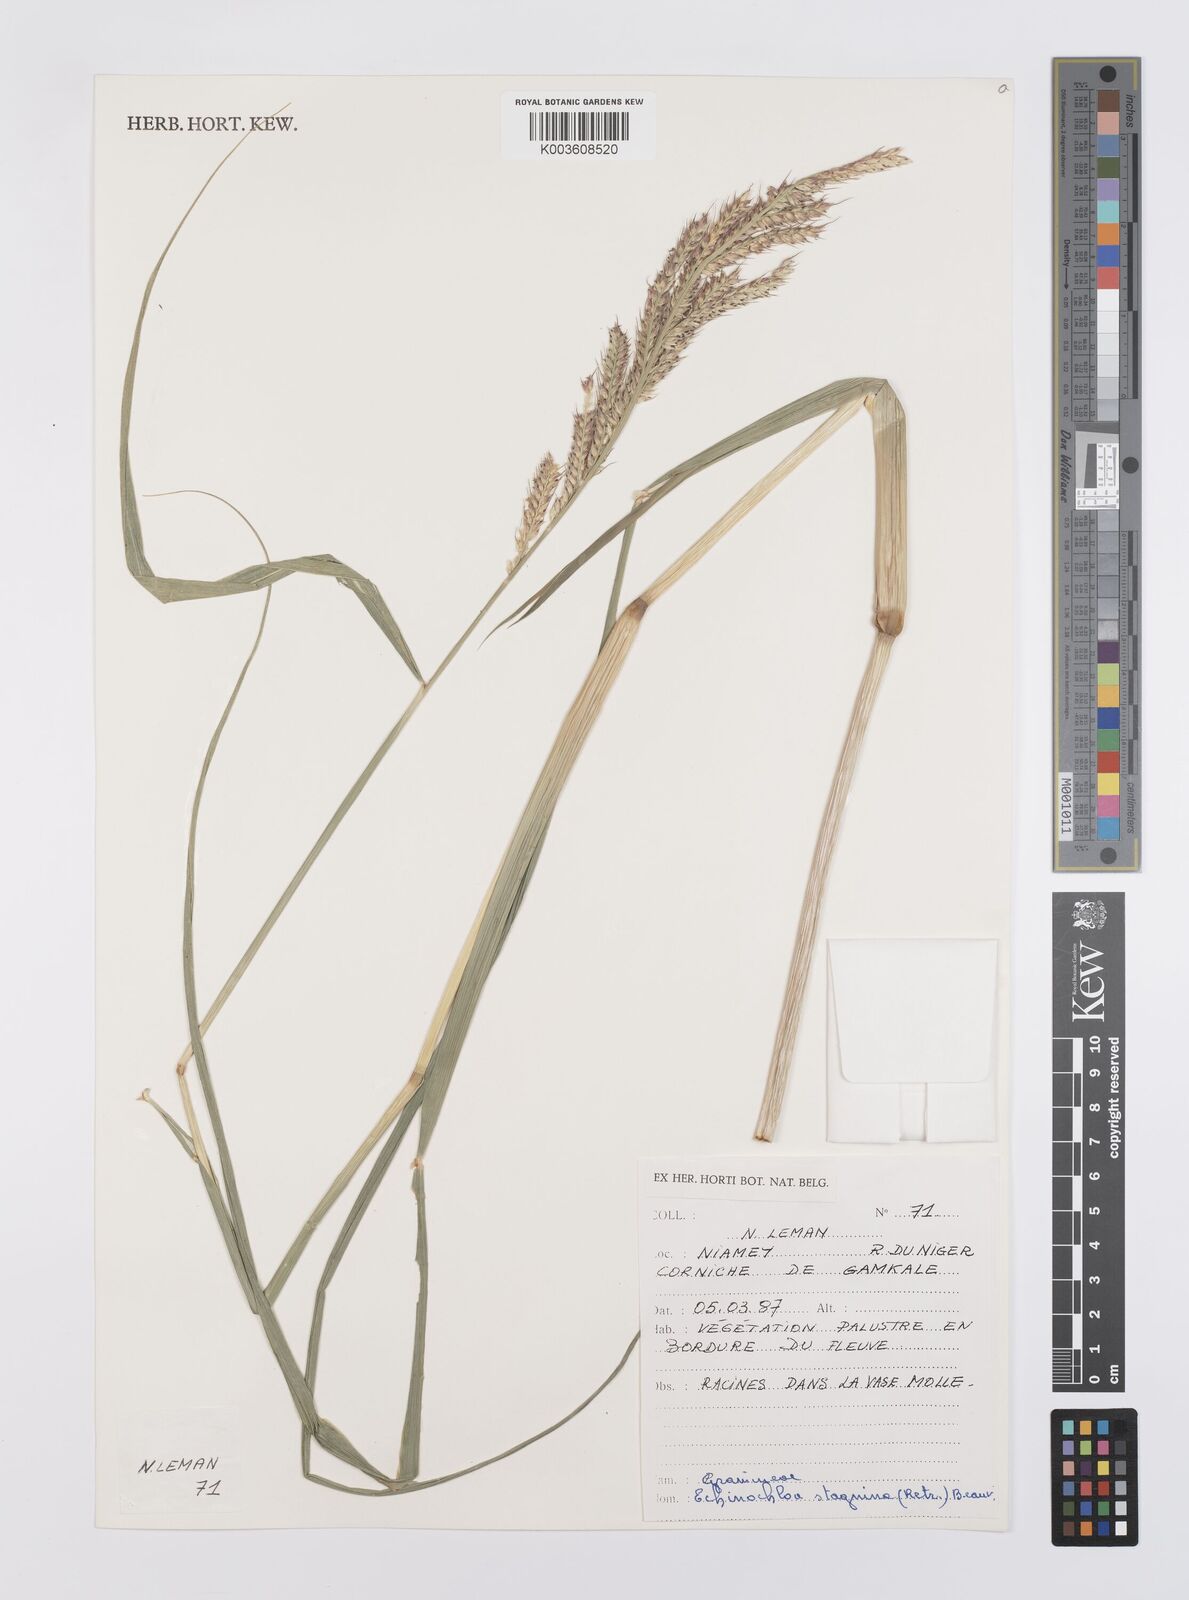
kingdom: Plantae
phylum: Tracheophyta
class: Liliopsida
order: Poales
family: Poaceae
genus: Echinochloa
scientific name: Echinochloa stagnina
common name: Burgu grass
